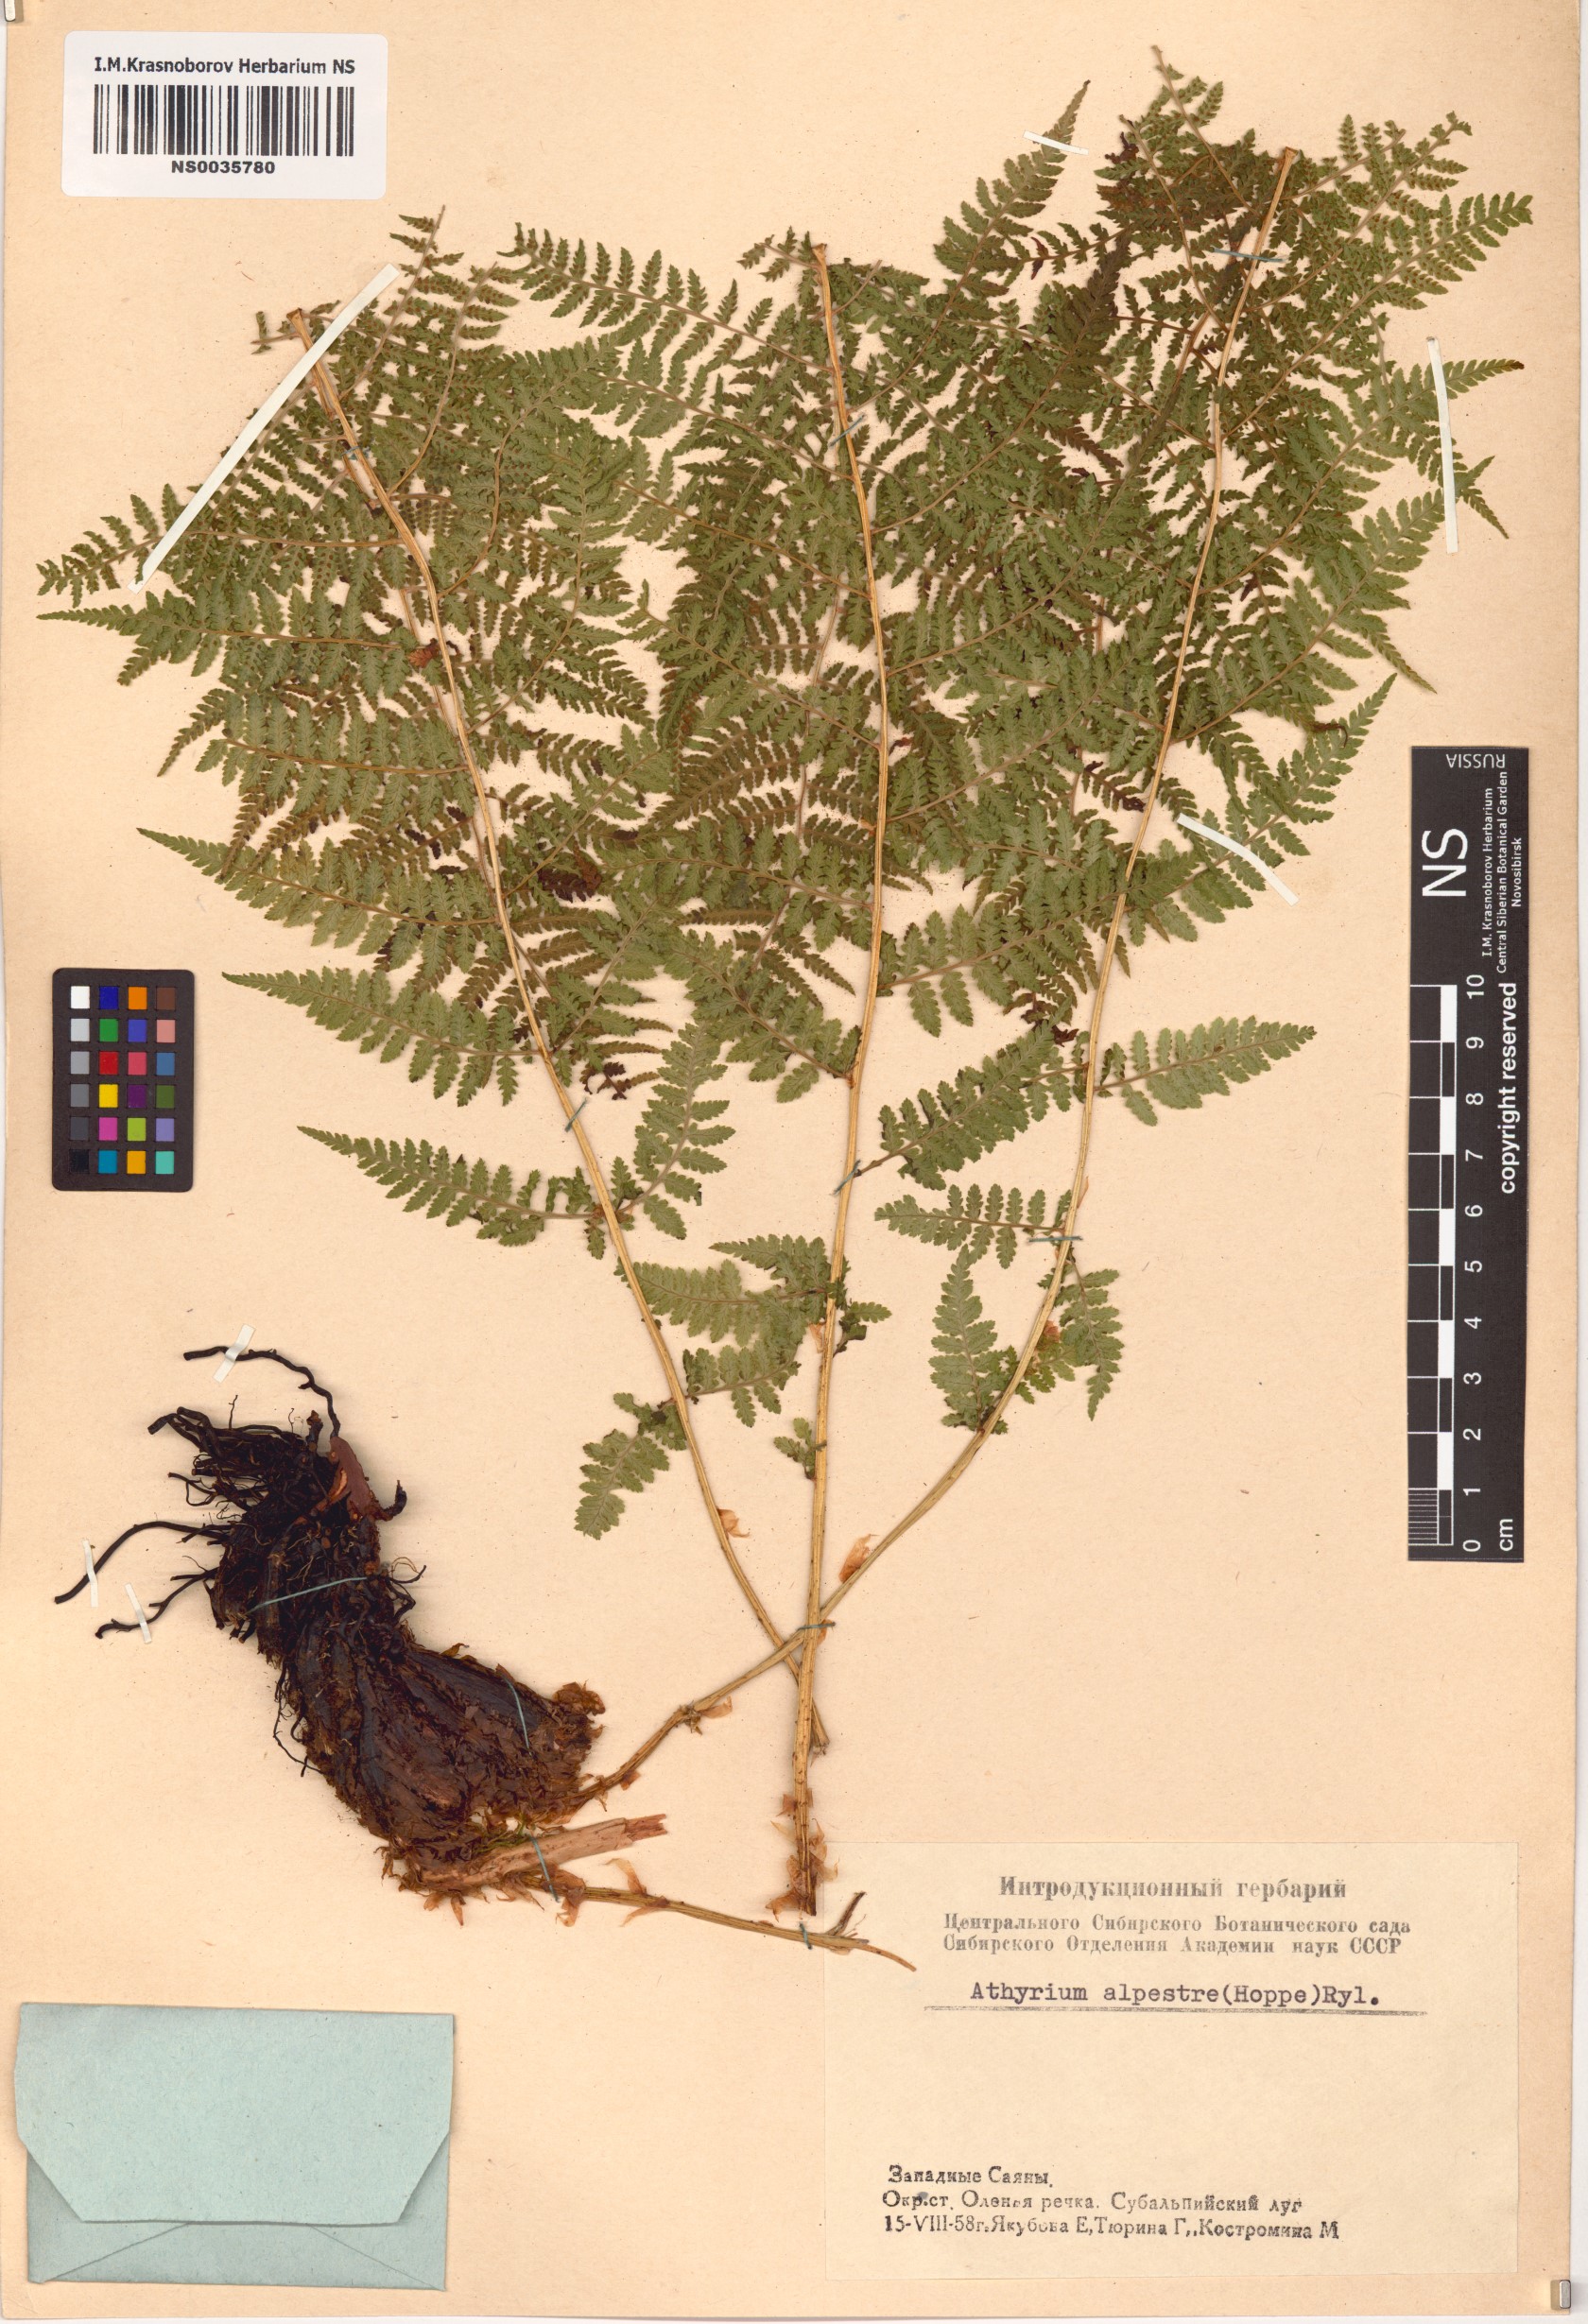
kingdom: Plantae
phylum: Tracheophyta
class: Polypodiopsida
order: Polypodiales
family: Athyriaceae
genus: Pseudathyrium
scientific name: Pseudathyrium alpestre
